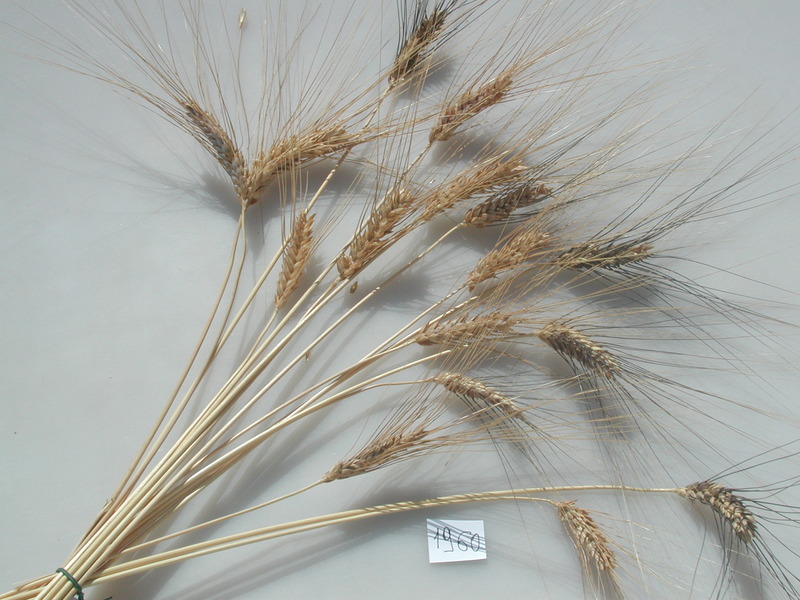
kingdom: Plantae
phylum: Tracheophyta
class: Liliopsida
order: Poales
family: Poaceae
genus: Triticum
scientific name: Triticum turgidum
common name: Wheat
